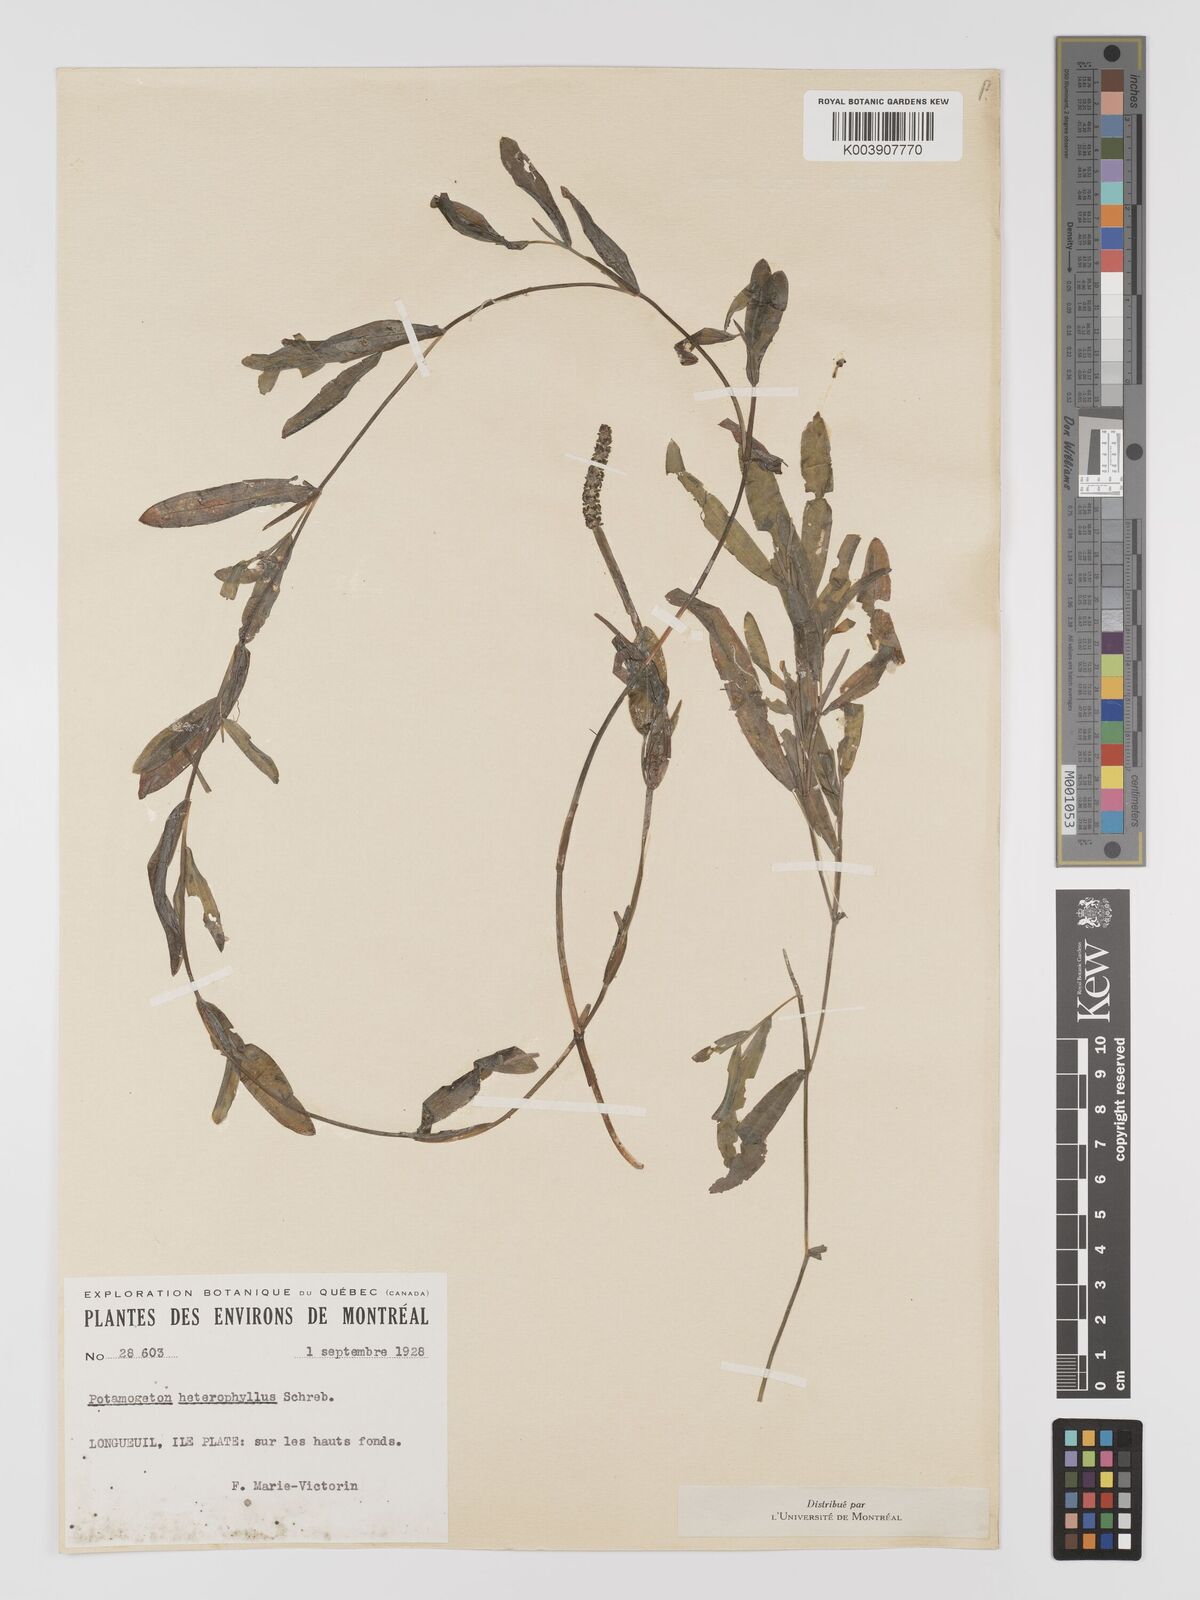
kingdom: Plantae
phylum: Tracheophyta
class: Liliopsida
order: Alismatales
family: Potamogetonaceae
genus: Potamogeton
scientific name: Potamogeton gramineus
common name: Various-leaved pondweed
